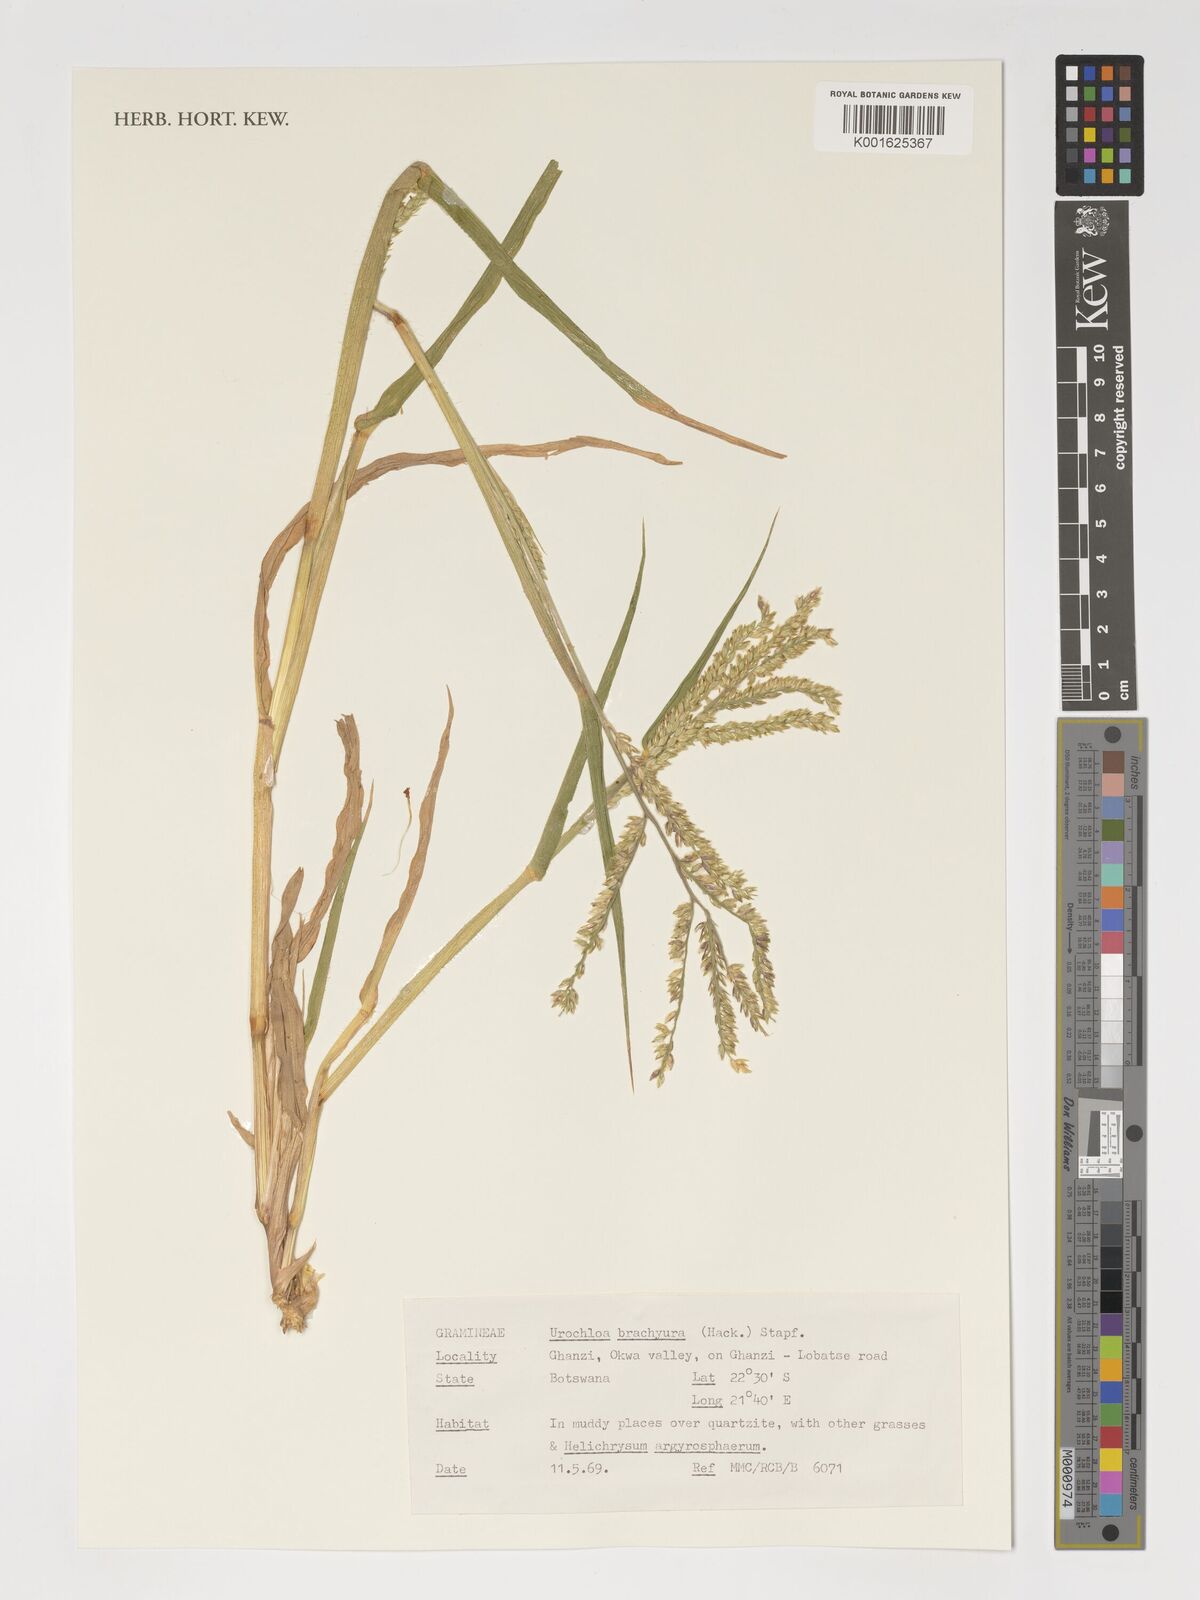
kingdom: Plantae
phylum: Tracheophyta
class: Liliopsida
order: Poales
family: Poaceae
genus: Urochloa
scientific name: Urochloa brachyura
